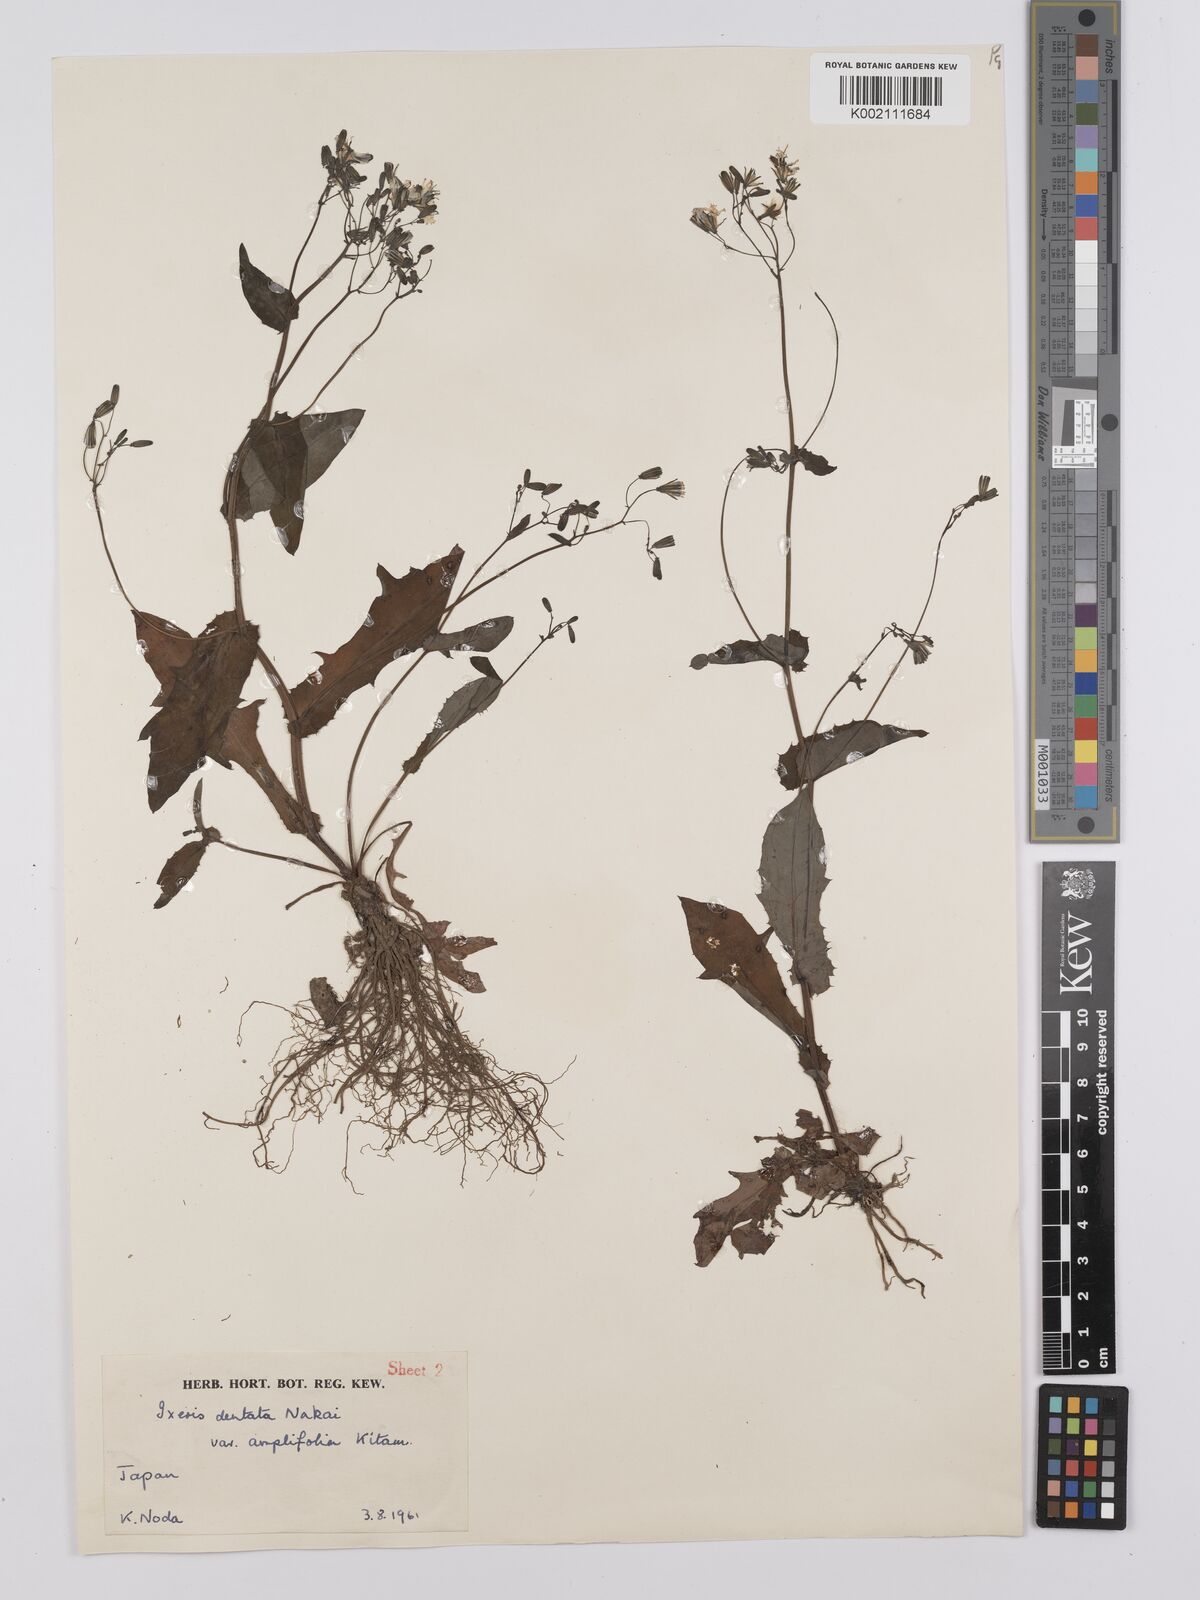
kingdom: Plantae
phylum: Tracheophyta
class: Magnoliopsida
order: Asterales
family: Asteraceae
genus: Ixeridium
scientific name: Ixeridium
